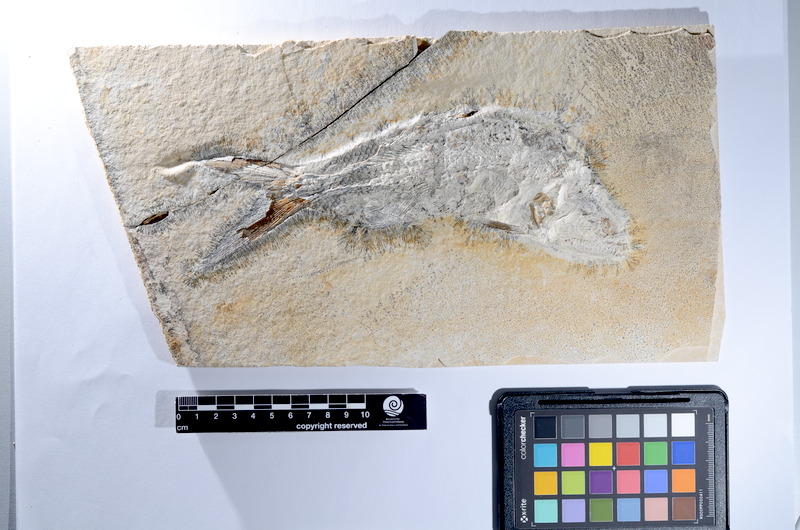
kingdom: Animalia
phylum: Chordata
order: Amiiformes
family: Caturidae
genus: Caturus
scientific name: Caturus
